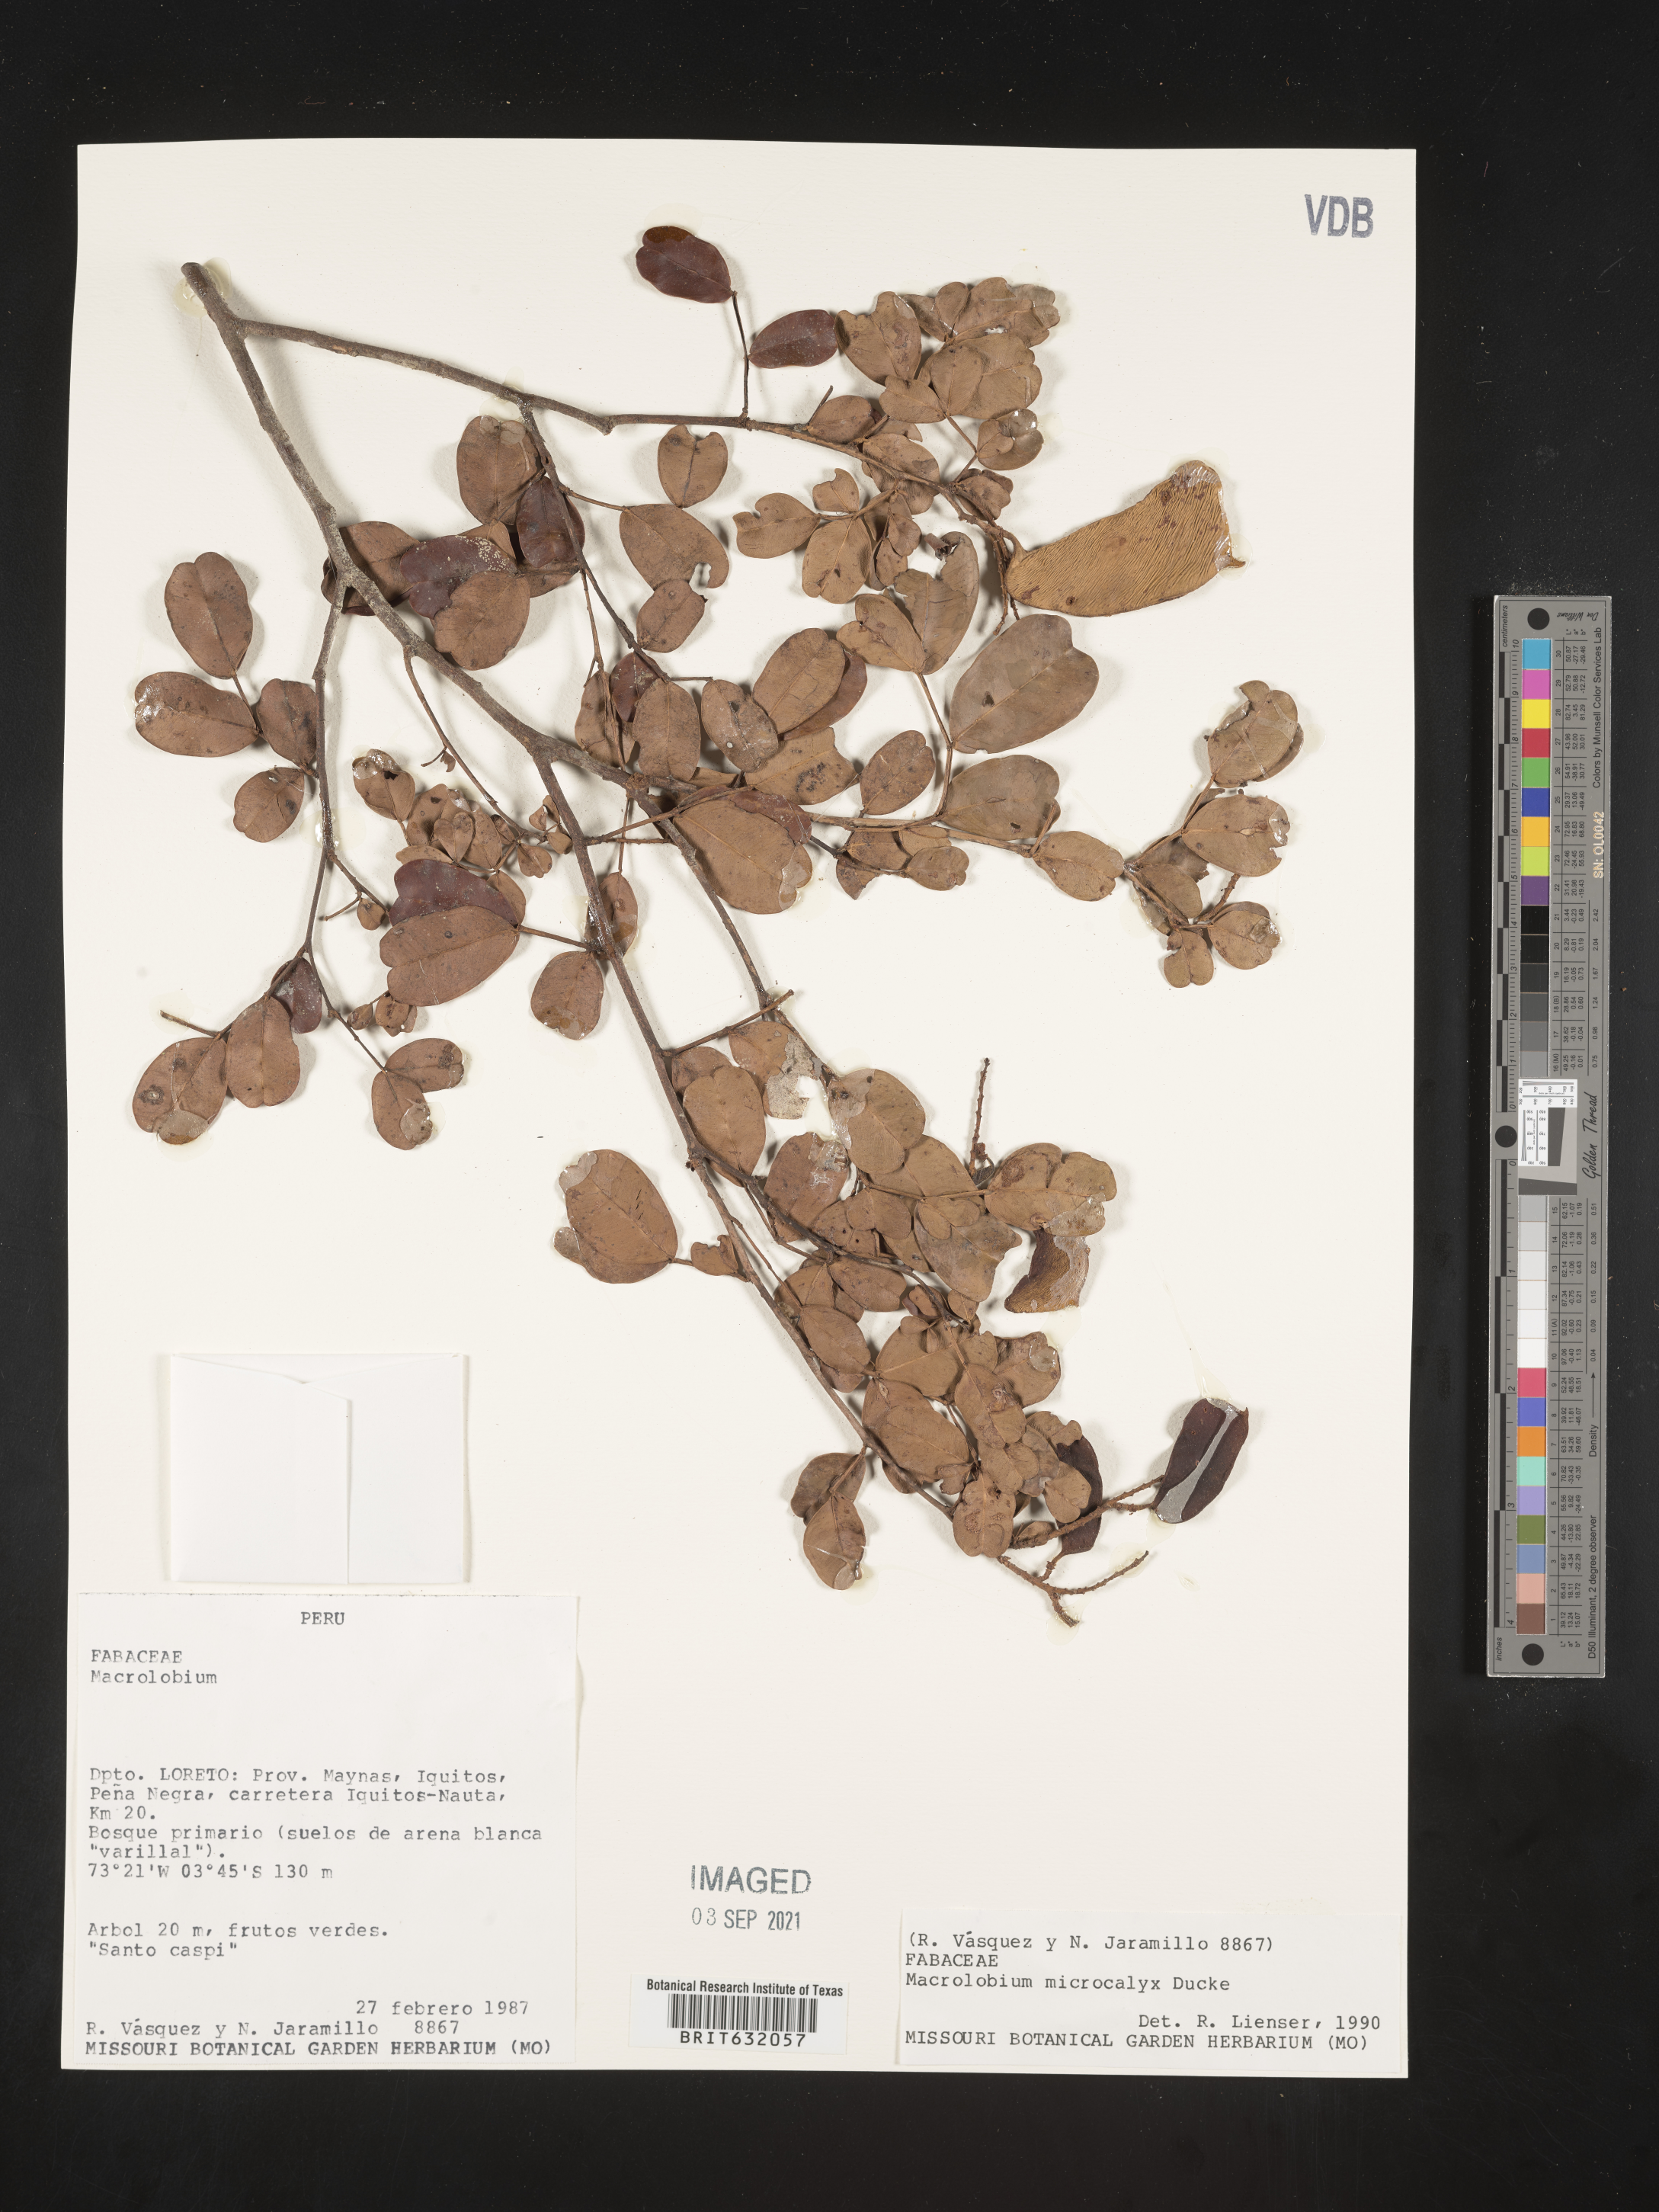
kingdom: Plantae
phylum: Tracheophyta
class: Magnoliopsida
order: Fabales
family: Fabaceae
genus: Macrolobium
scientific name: Macrolobium
